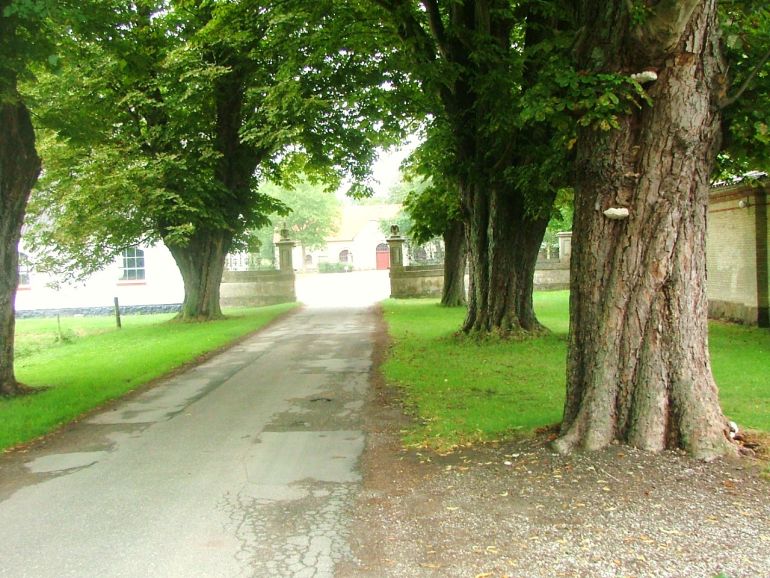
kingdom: Fungi
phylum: Basidiomycota
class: Agaricomycetes
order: Polyporales
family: Polyporaceae
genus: Ganoderma
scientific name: Ganoderma adspersum
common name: grov lakporesvamp
